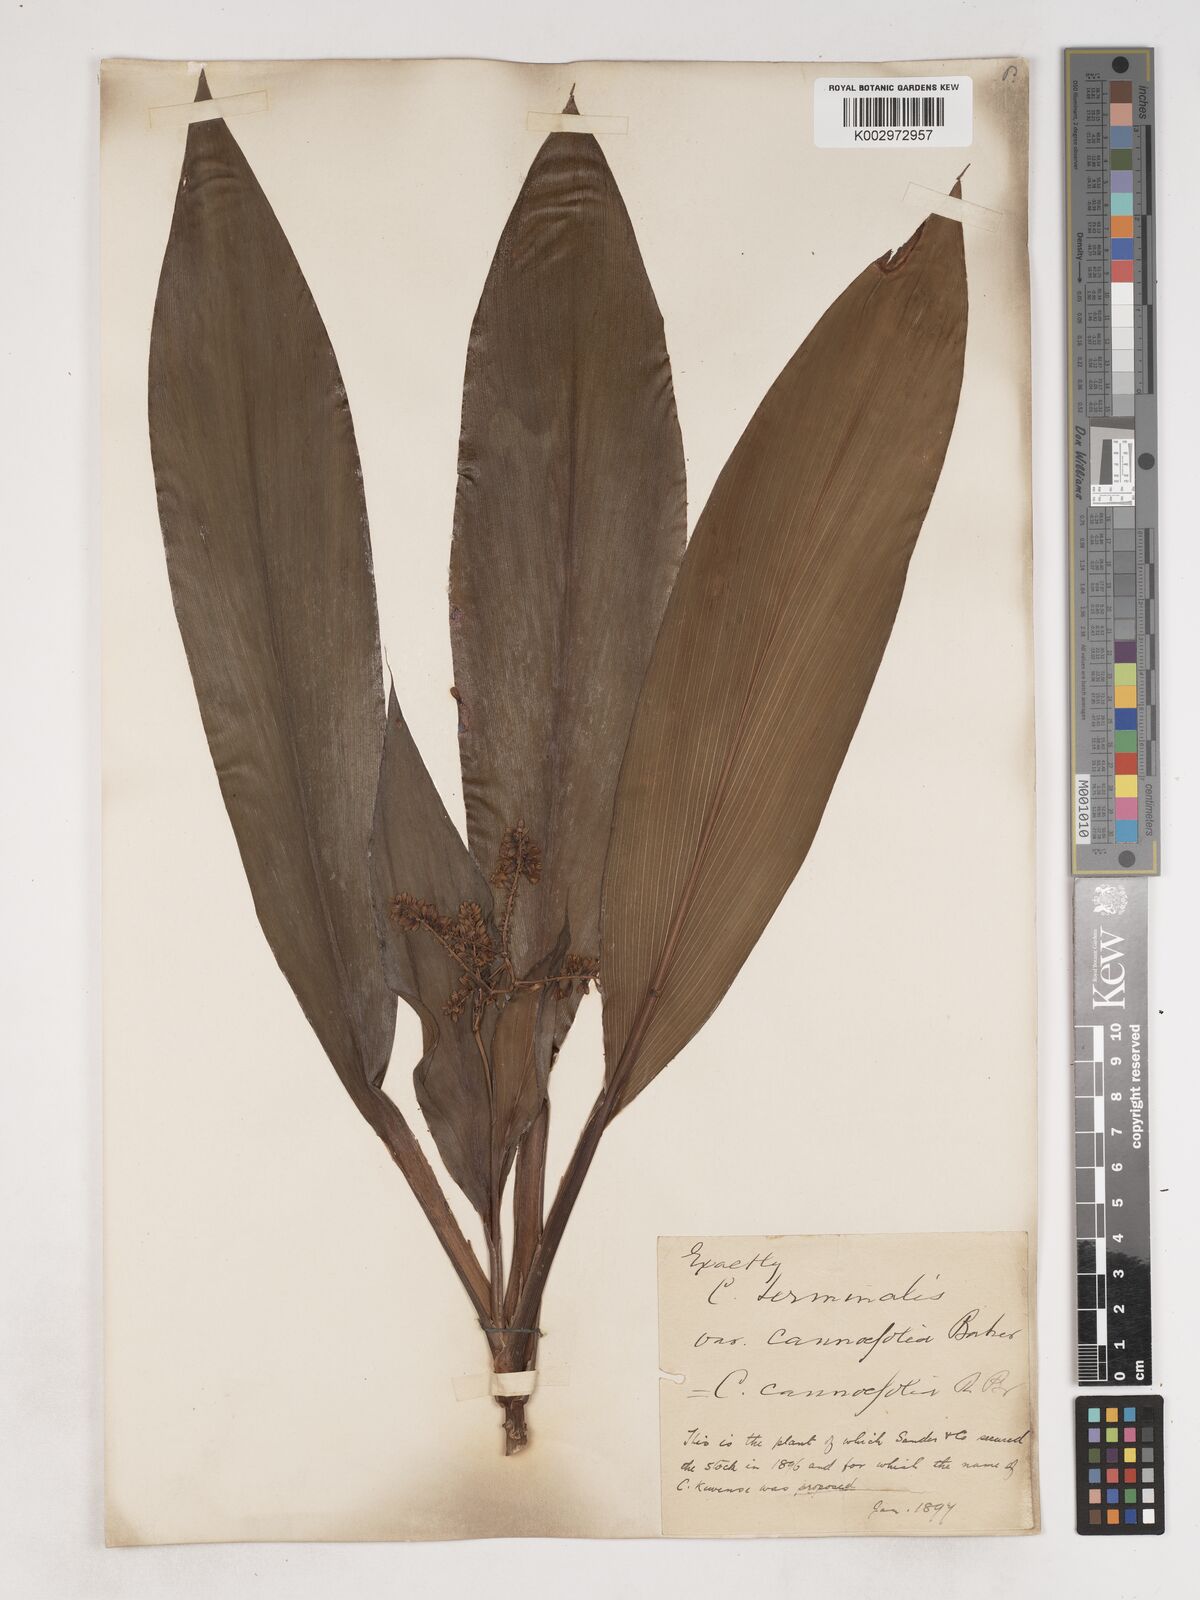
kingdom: Plantae
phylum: Tracheophyta
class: Liliopsida
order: Asparagales
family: Asparagaceae
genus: Cordyline
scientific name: Cordyline cannifolia
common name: Palm-lily
